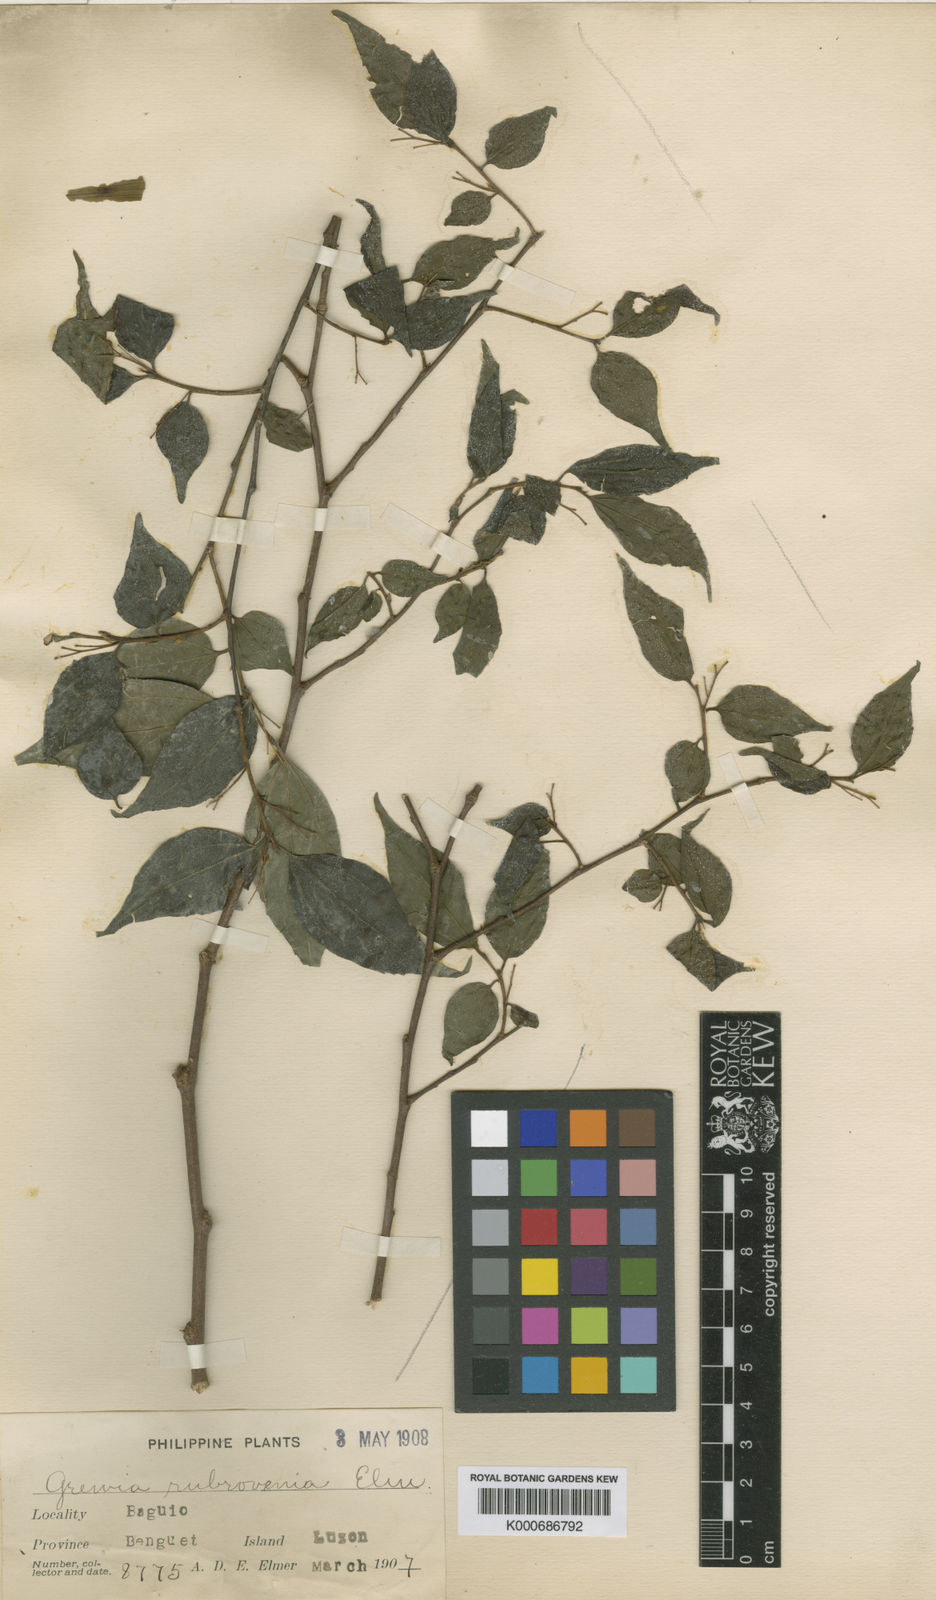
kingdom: Plantae
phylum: Tracheophyta
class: Magnoliopsida
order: Malvales
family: Malvaceae
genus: Grewia
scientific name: Grewia
